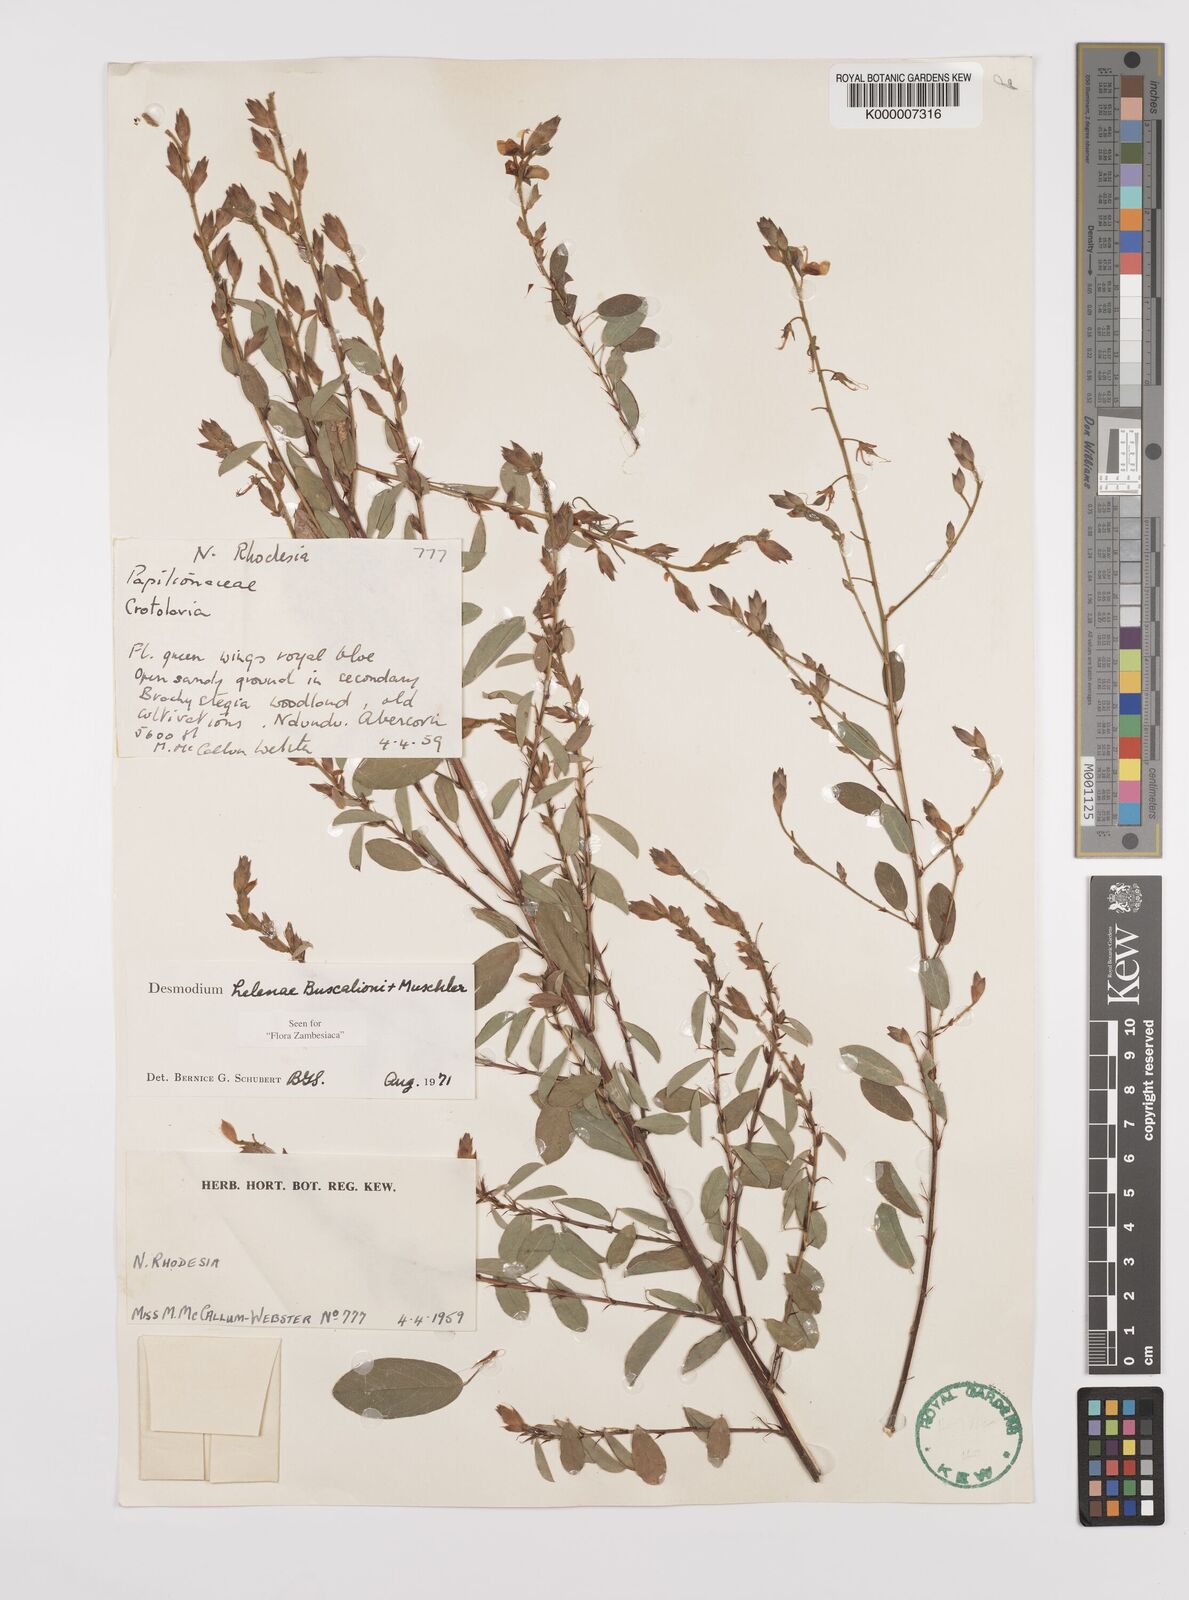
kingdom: Plantae
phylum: Tracheophyta
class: Magnoliopsida
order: Fabales
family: Fabaceae
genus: Grona
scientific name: Grona helenae
